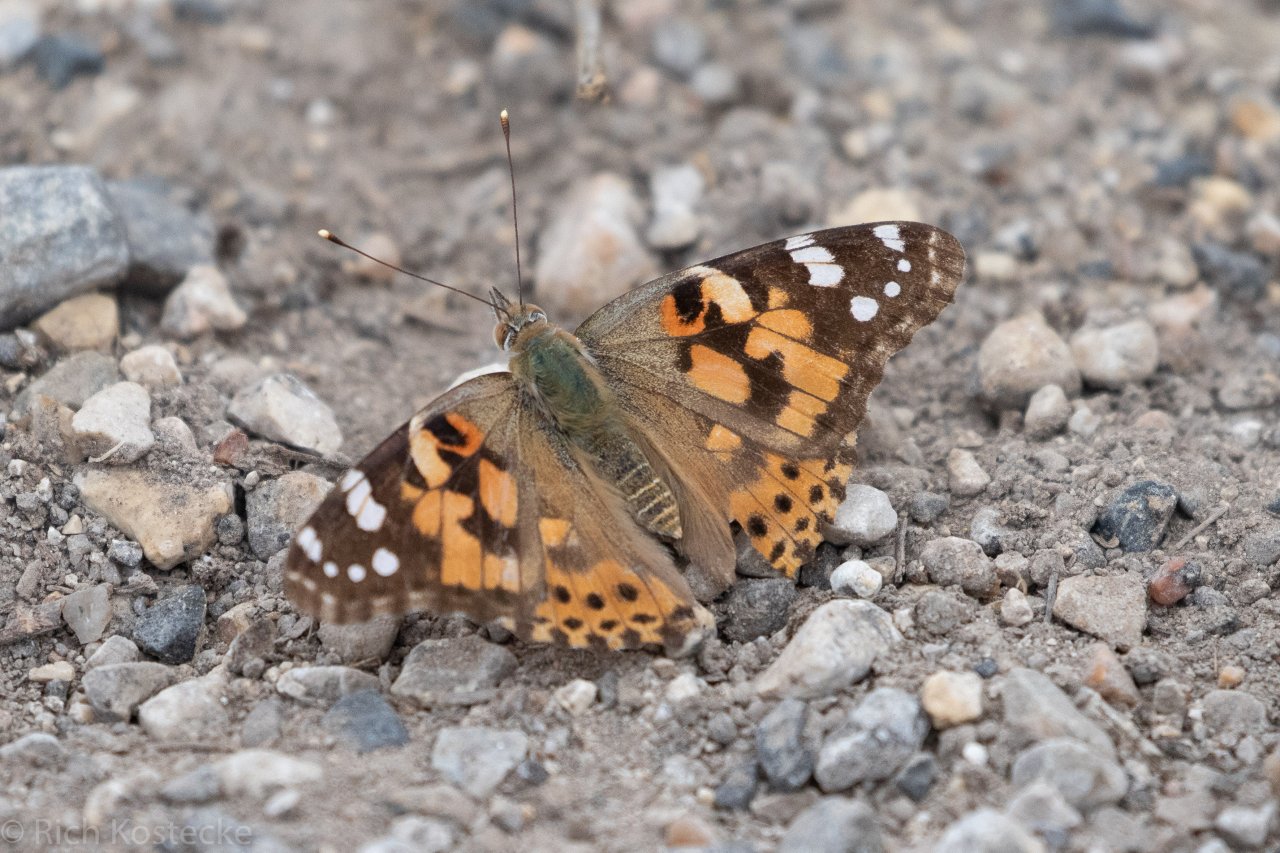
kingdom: Animalia
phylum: Arthropoda
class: Insecta
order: Lepidoptera
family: Nymphalidae
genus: Vanessa
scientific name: Vanessa cardui
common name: Painted Lady
